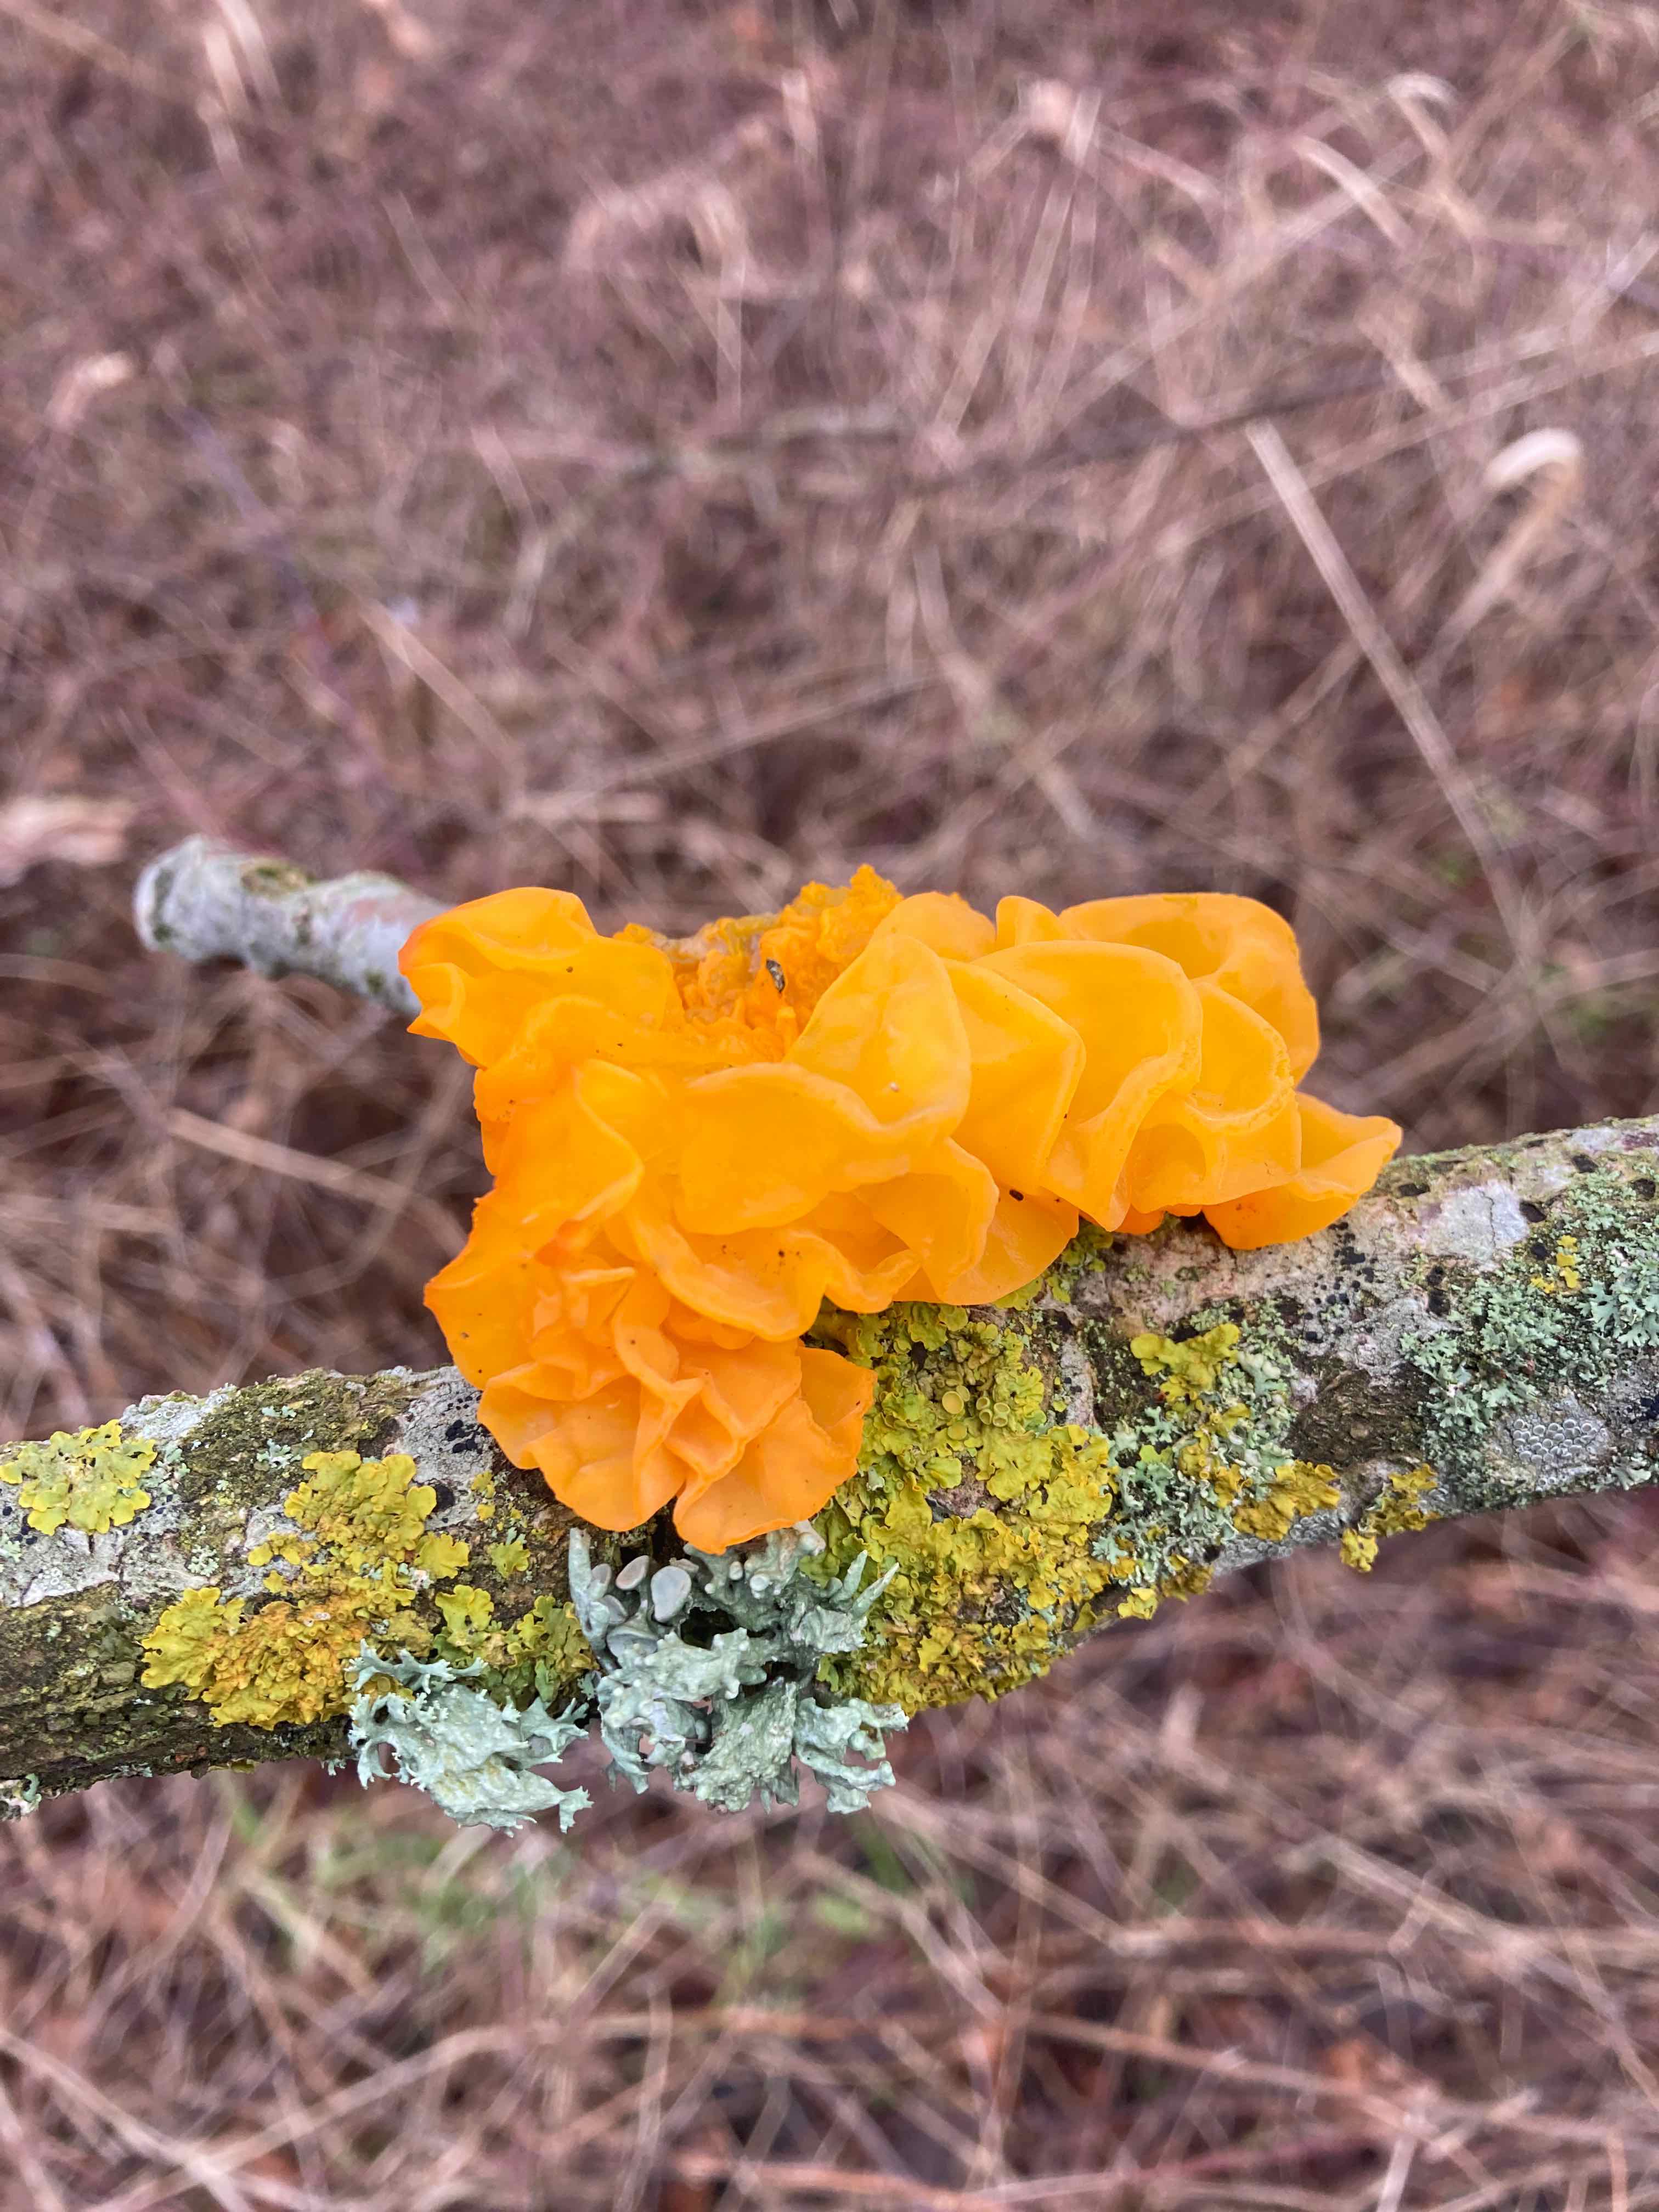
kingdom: Fungi
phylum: Basidiomycota
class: Tremellomycetes
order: Tremellales
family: Tremellaceae
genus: Tremella
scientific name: Tremella mesenterica
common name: gul bævresvamp
